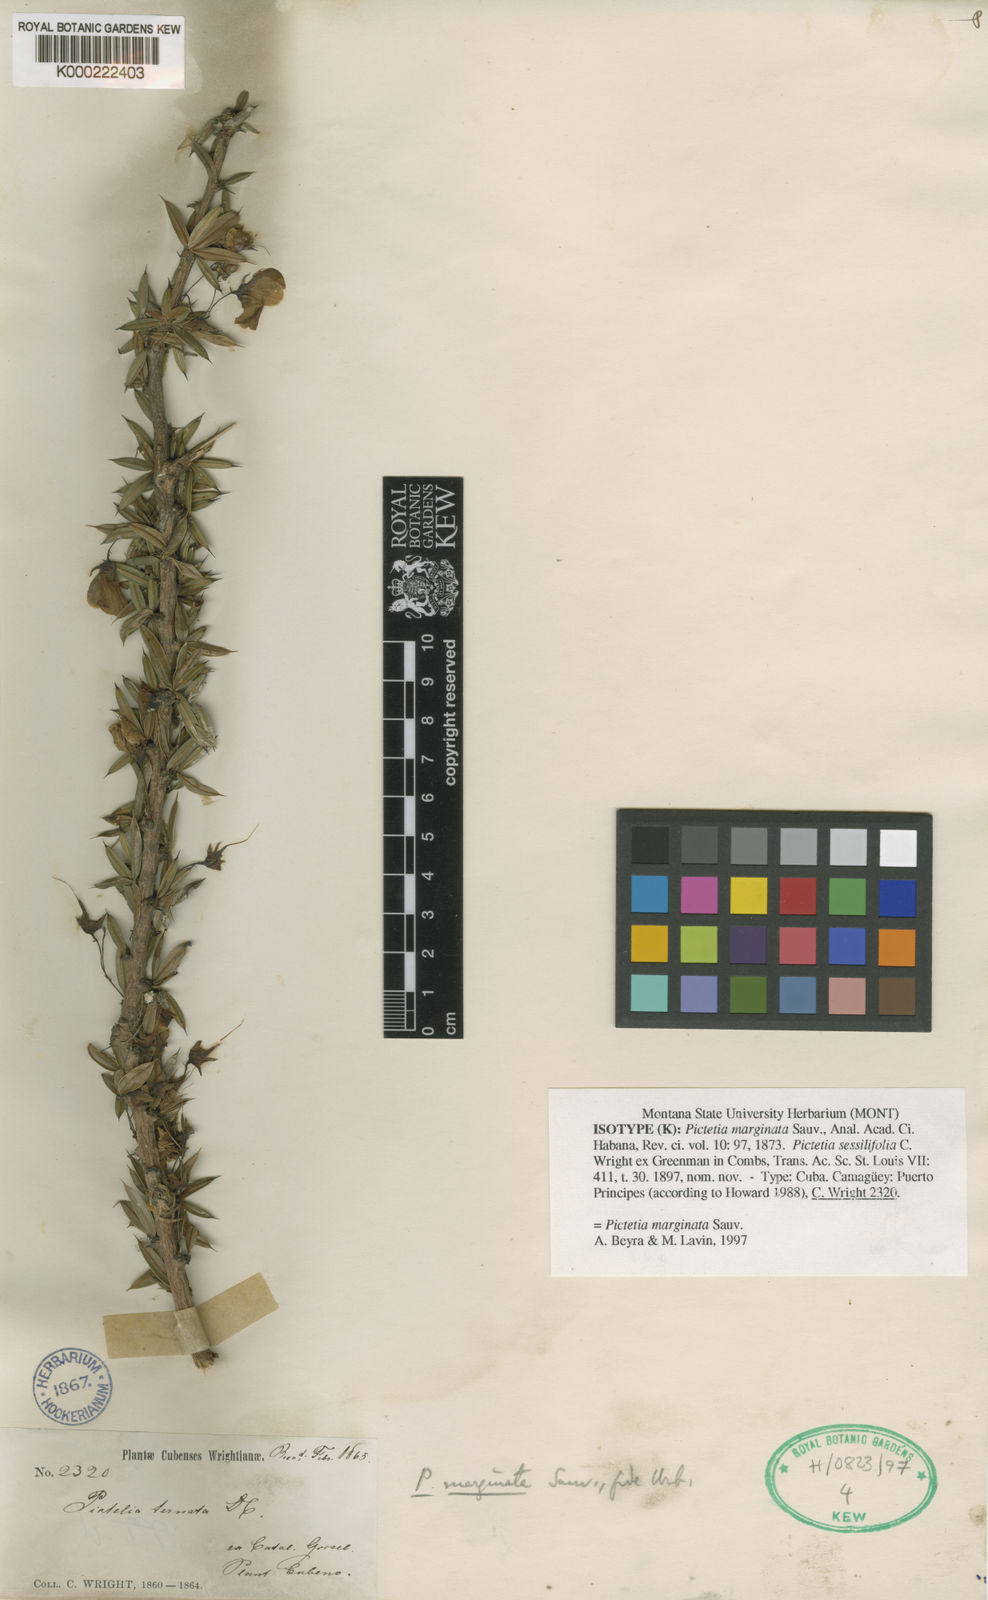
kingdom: Plantae
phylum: Tracheophyta
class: Magnoliopsida
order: Fabales
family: Fabaceae
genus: Pictetia
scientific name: Pictetia
